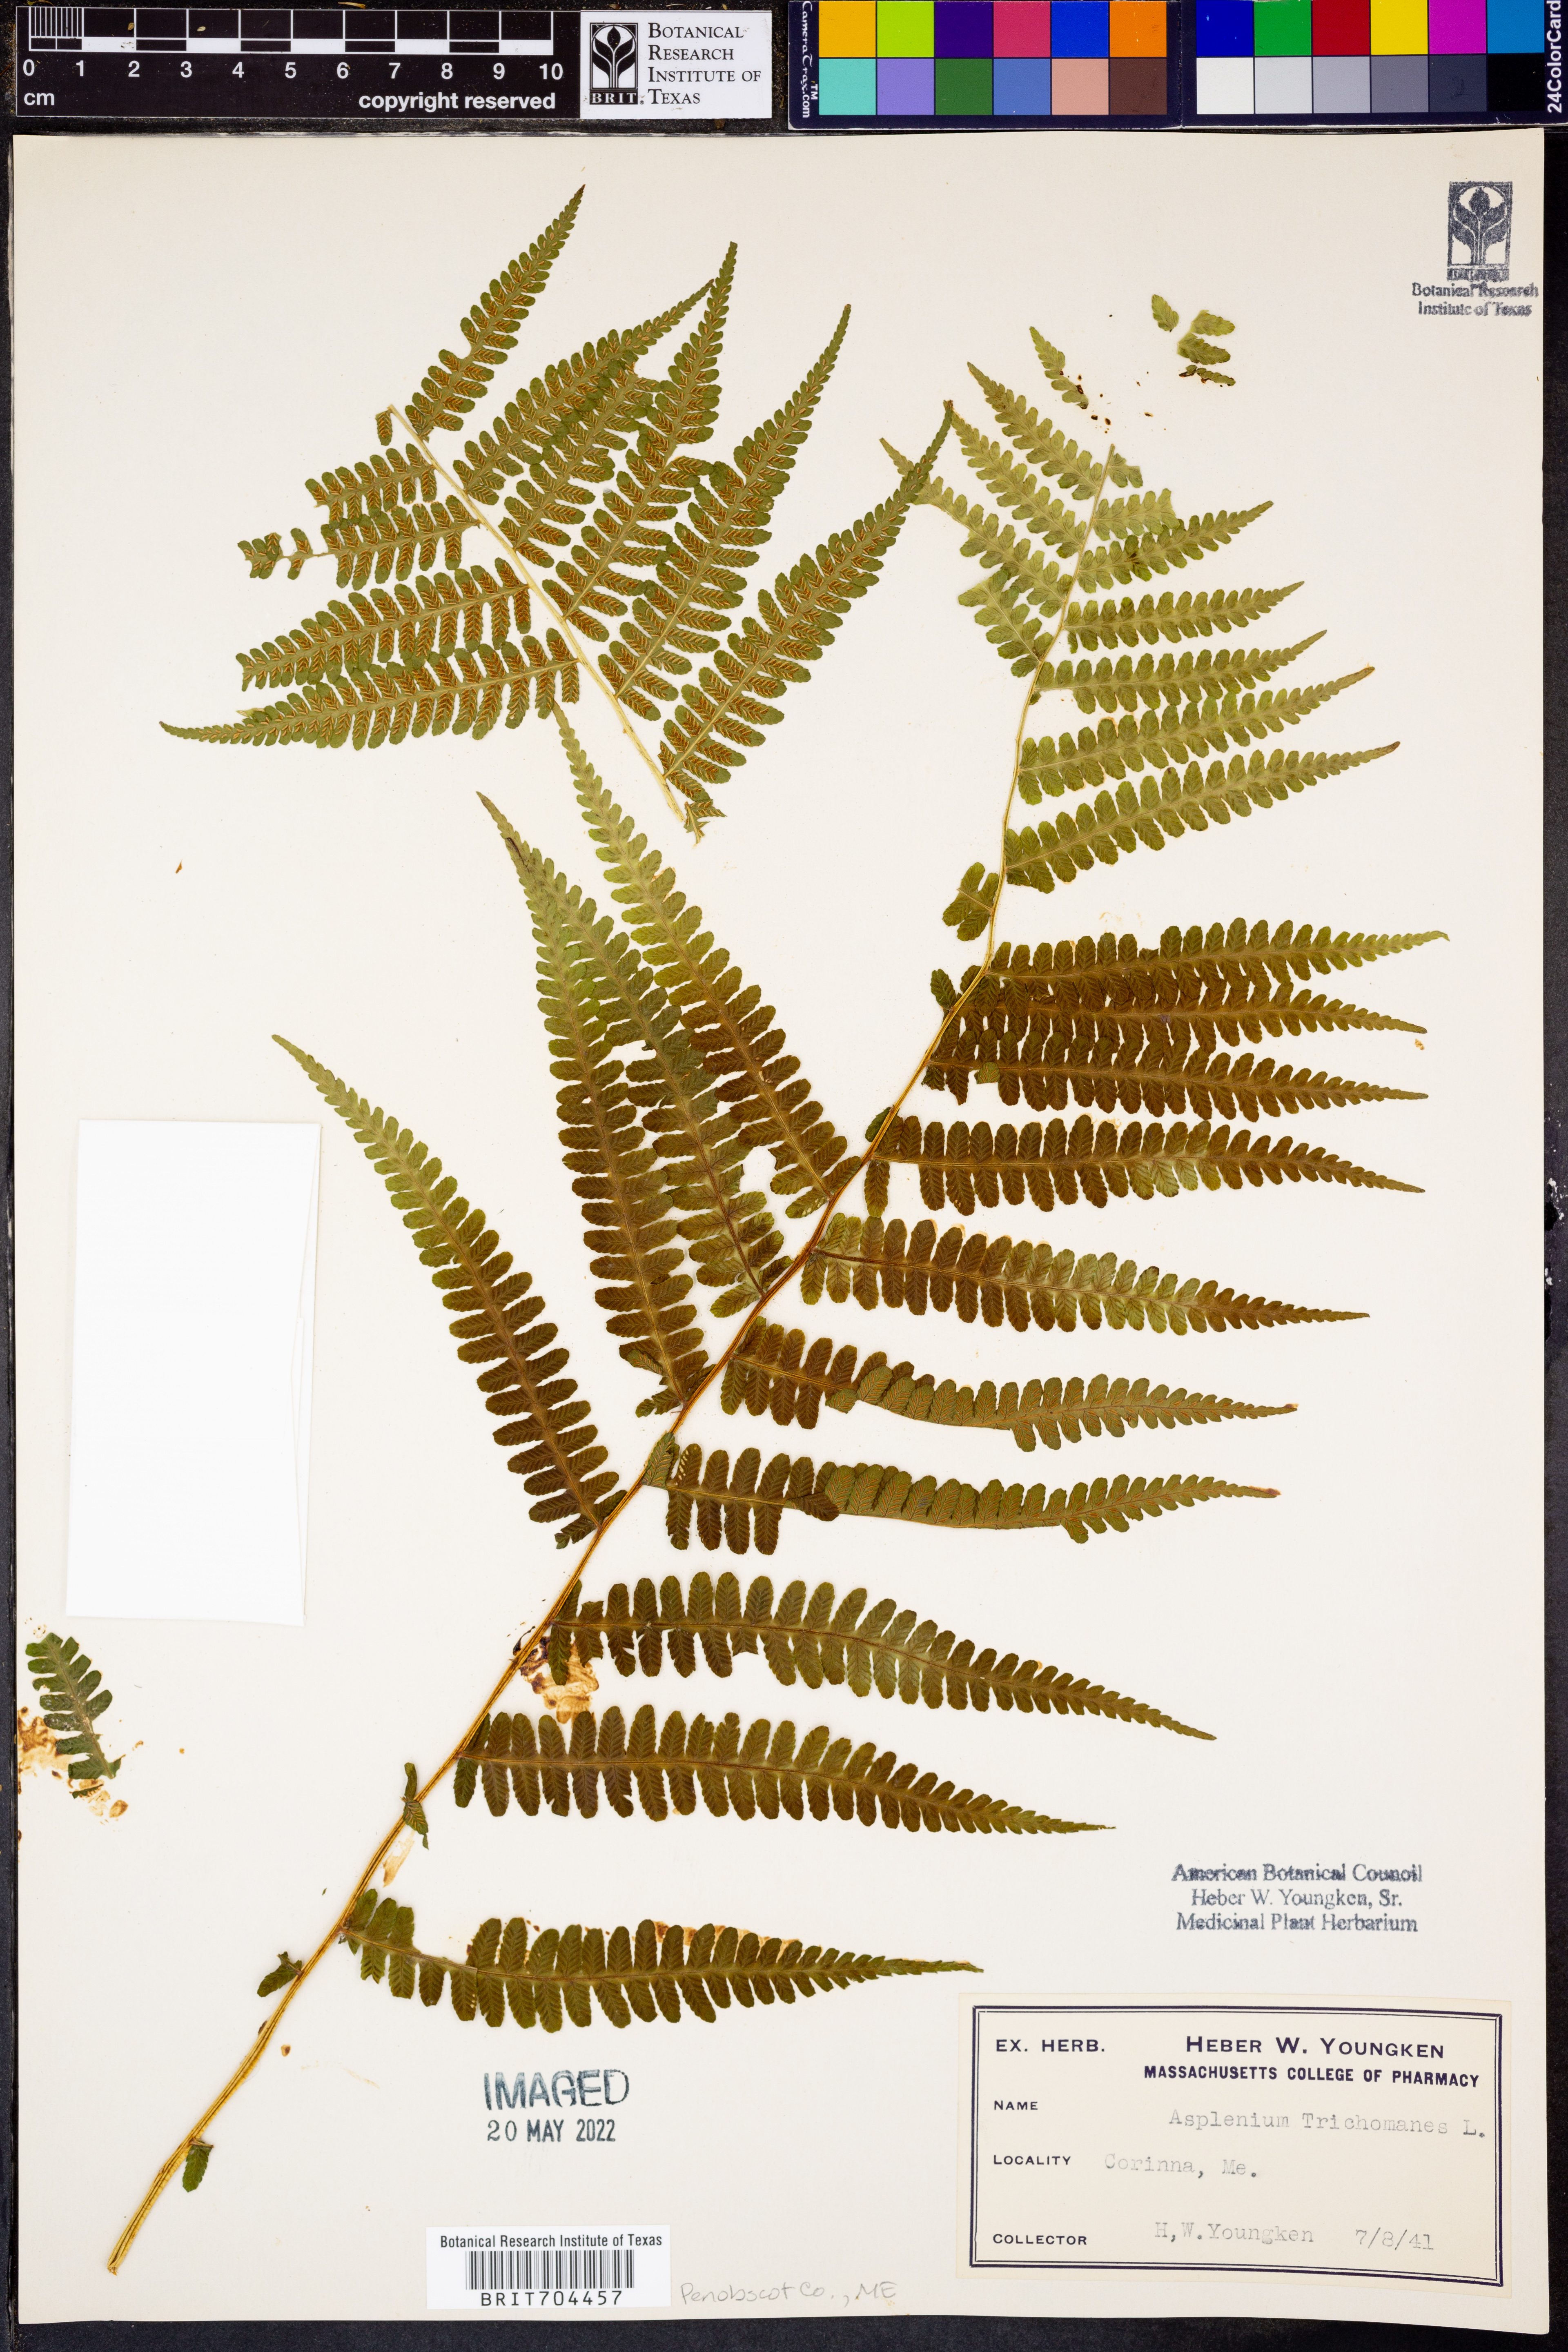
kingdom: Plantae
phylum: Tracheophyta
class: Polypodiopsida
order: Polypodiales
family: Aspleniaceae
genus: Asplenium
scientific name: Asplenium trichomanes
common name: Maidenhair spleenwort
